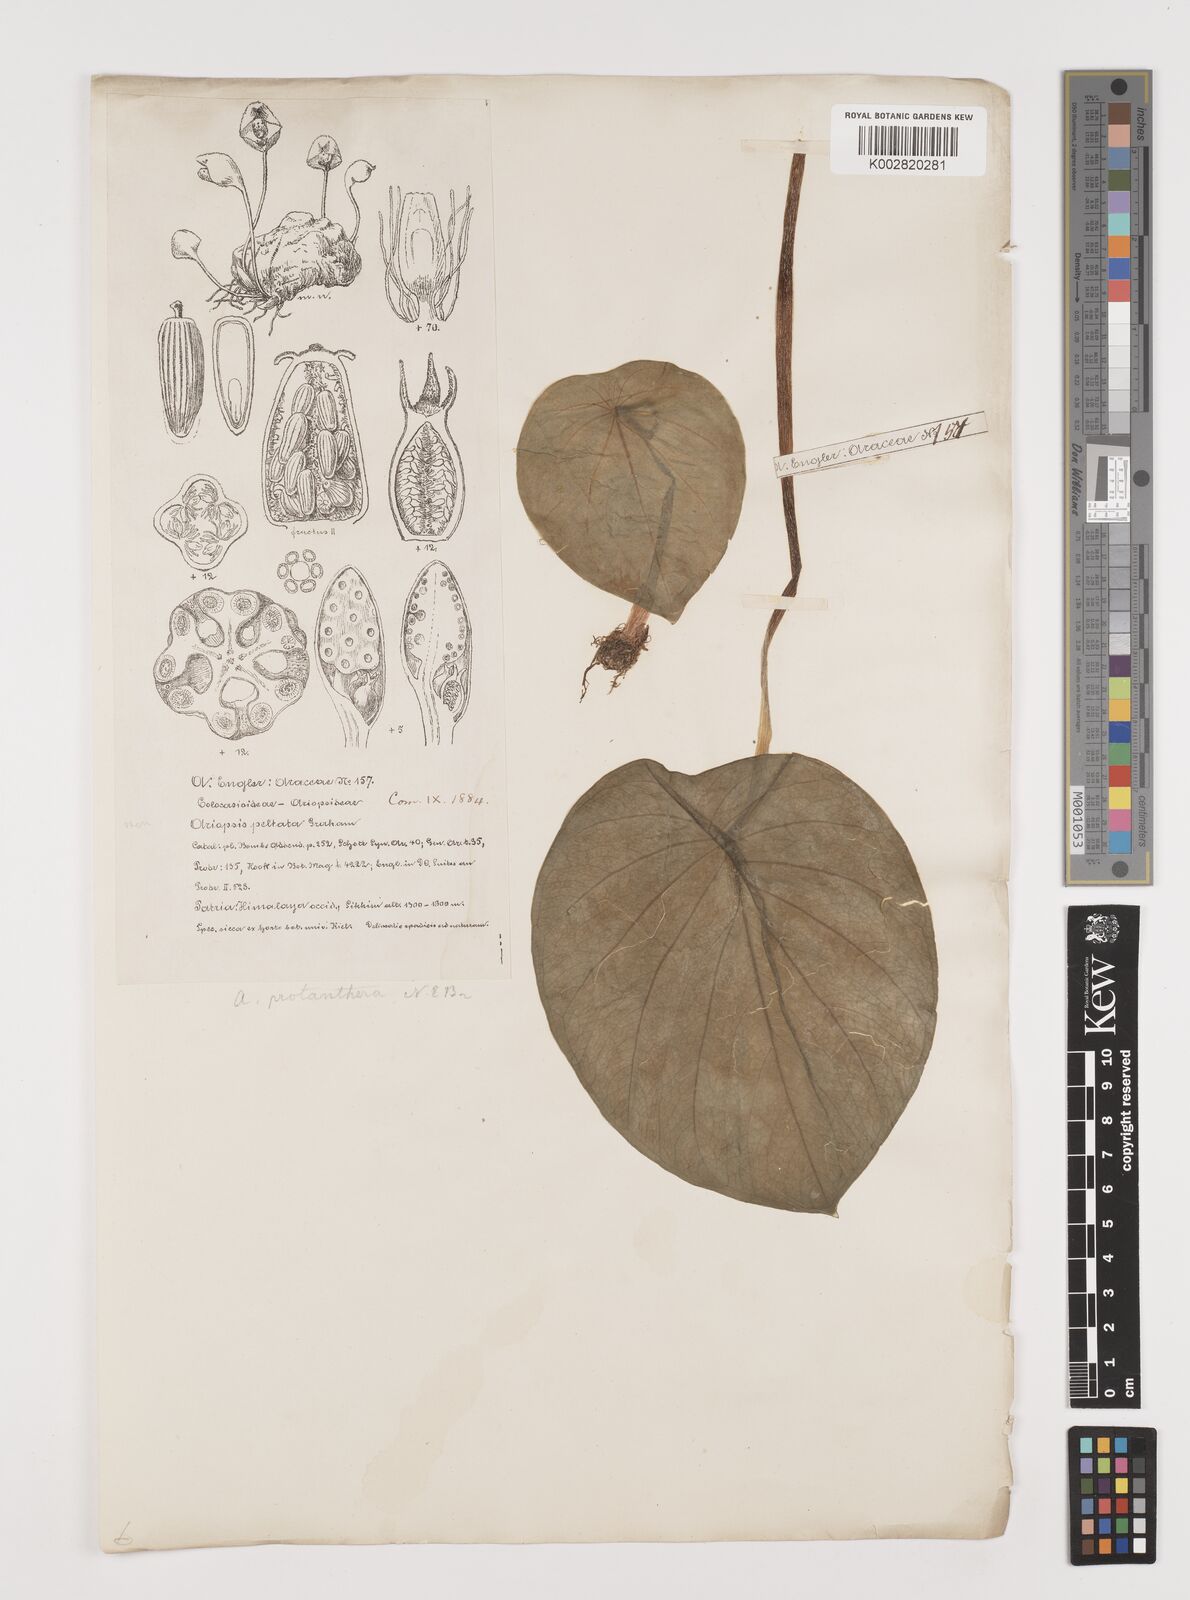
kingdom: Plantae
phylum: Tracheophyta
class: Liliopsida
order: Alismatales
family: Araceae
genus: Ariopsis
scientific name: Ariopsis peltata
